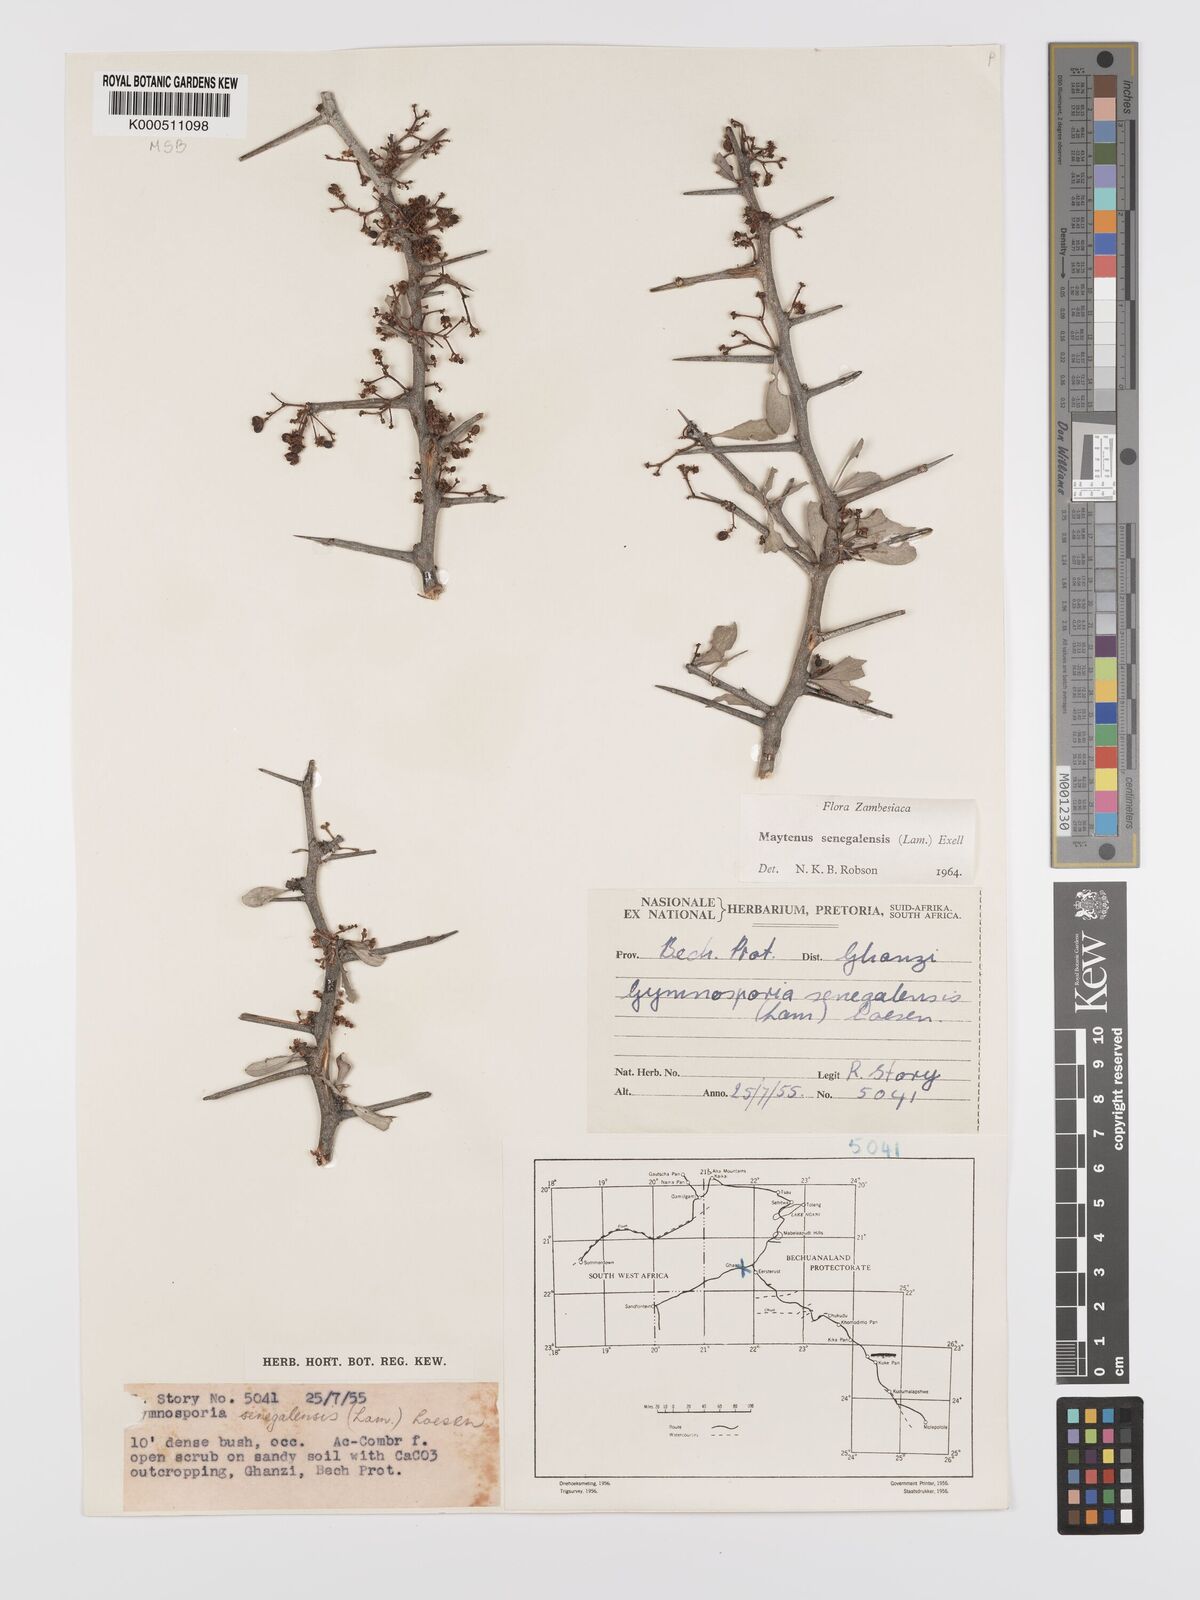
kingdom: Plantae
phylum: Tracheophyta
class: Magnoliopsida
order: Celastrales
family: Celastraceae
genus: Gymnosporia
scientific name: Gymnosporia senegalensis
